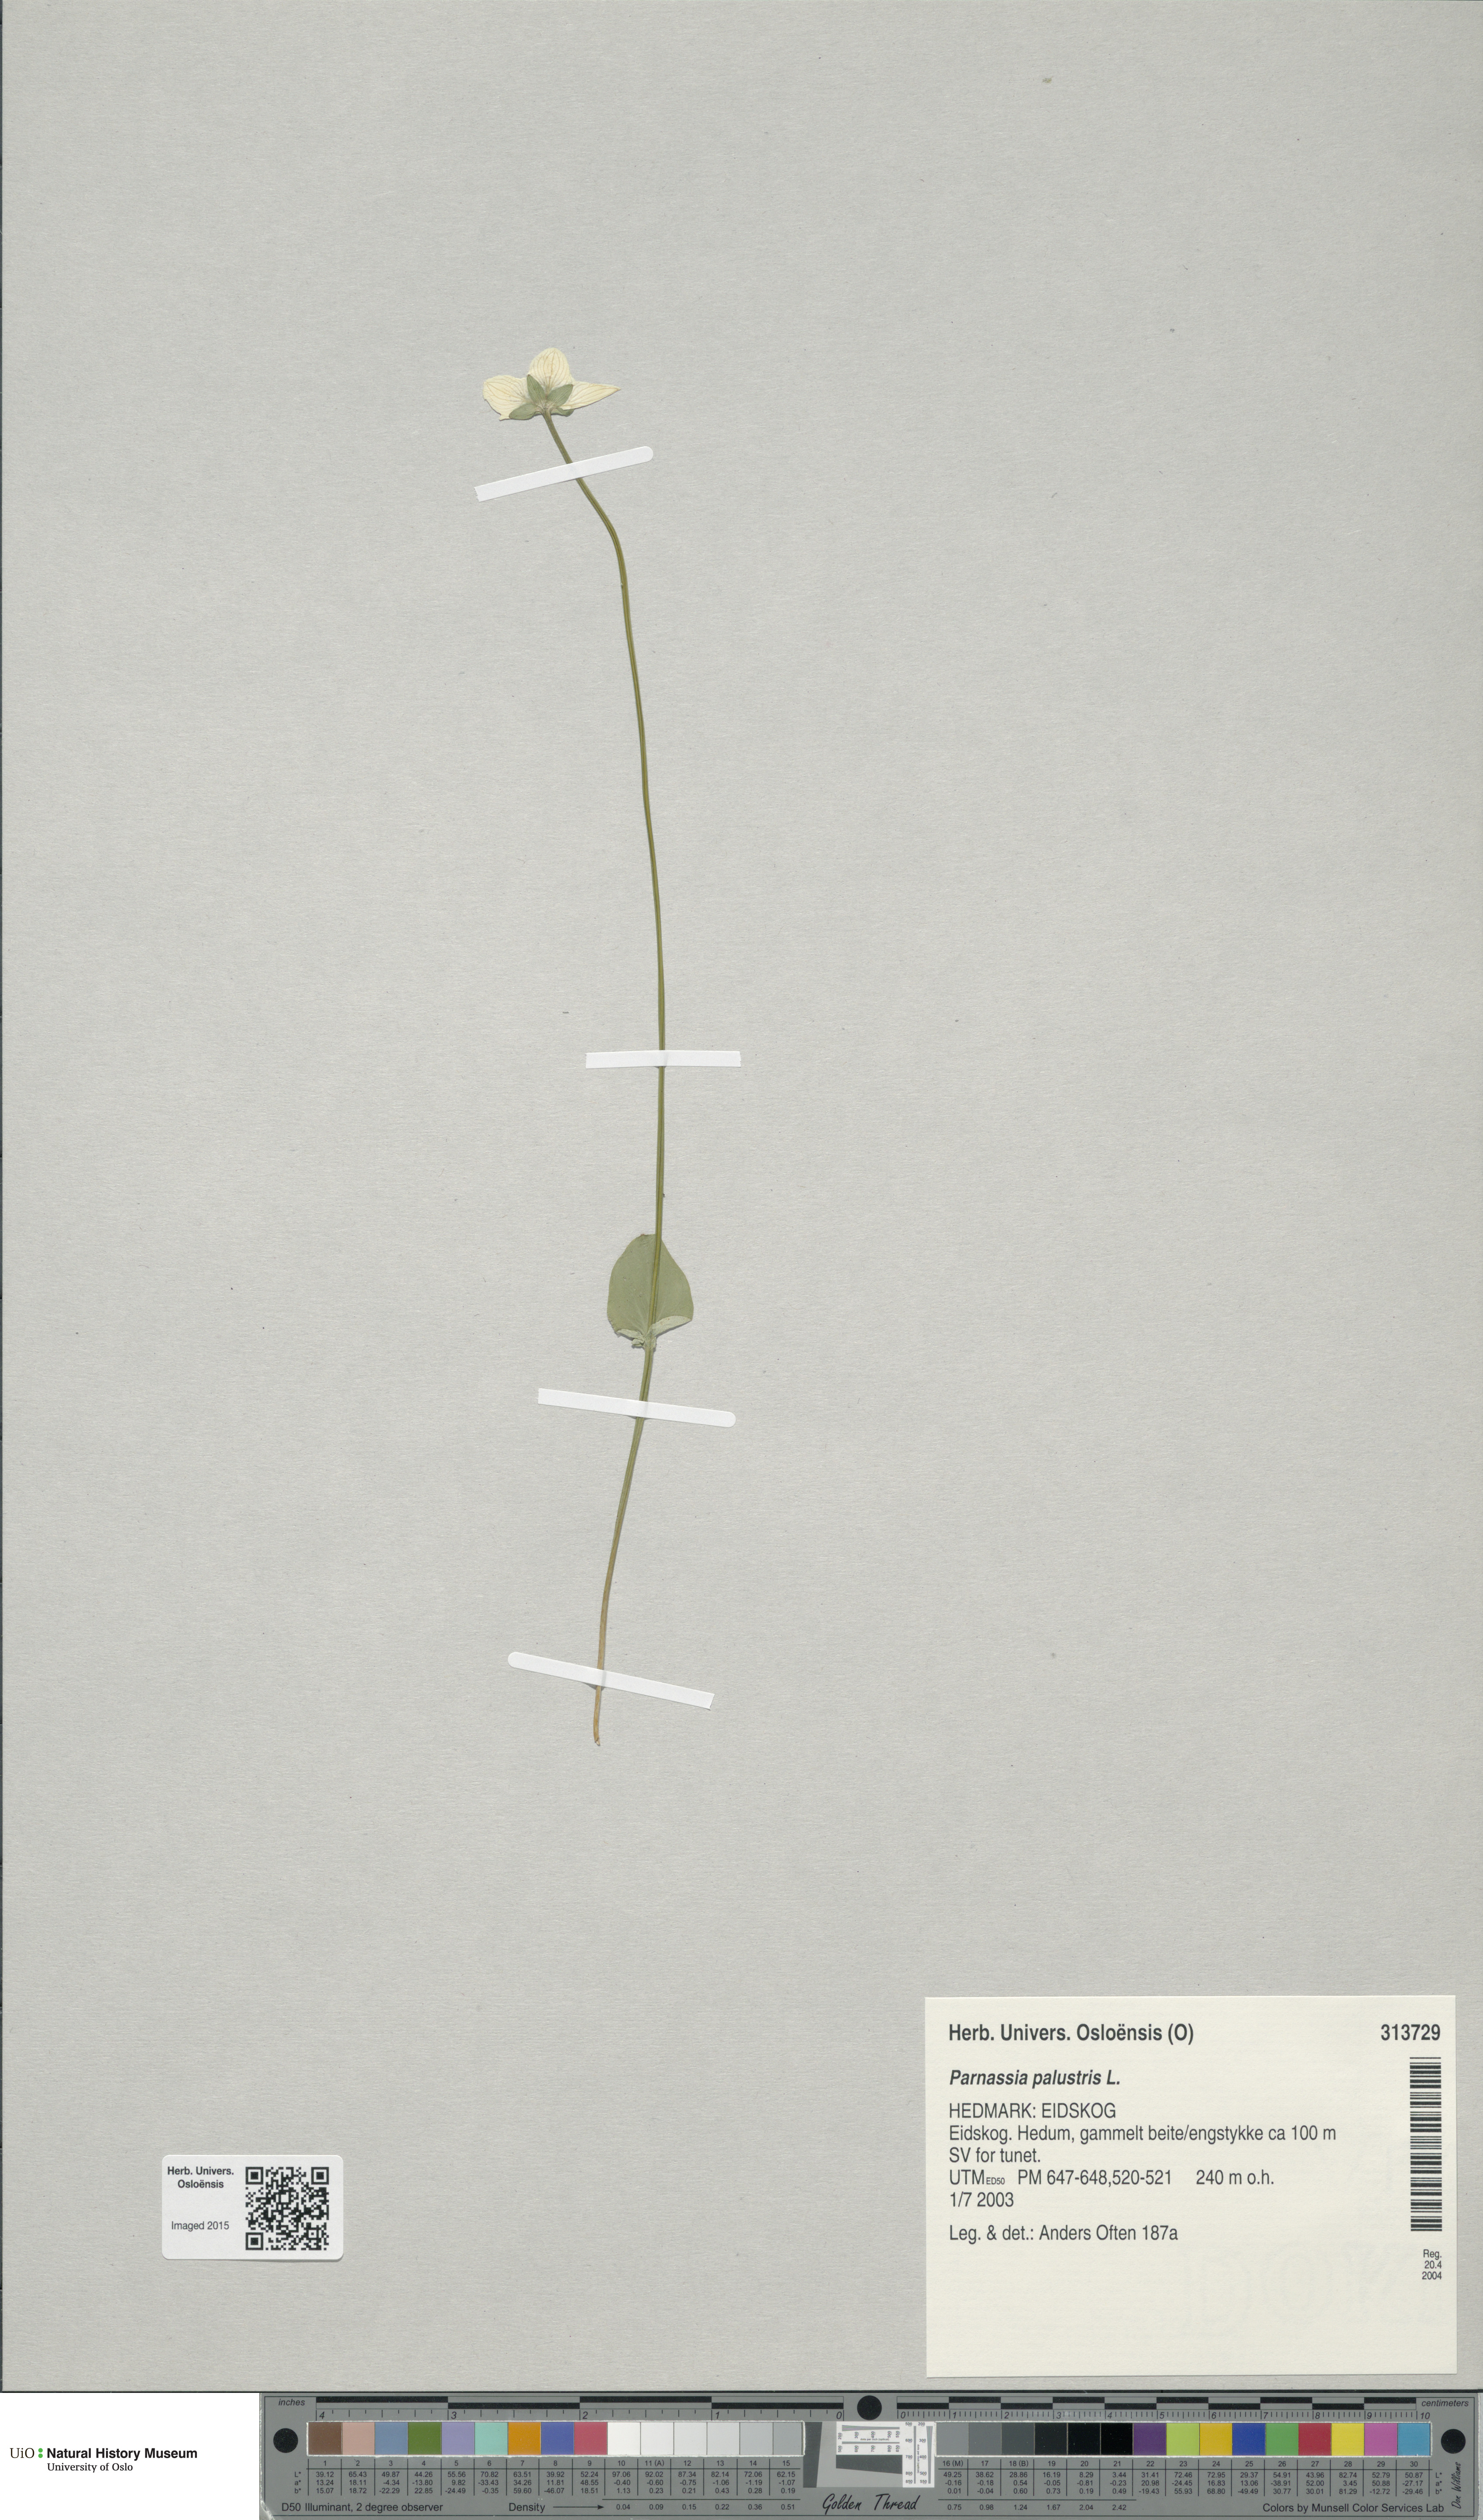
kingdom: Plantae
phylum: Tracheophyta
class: Magnoliopsida
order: Celastrales
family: Parnassiaceae
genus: Parnassia
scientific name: Parnassia palustris
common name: Grass-of-parnassus
